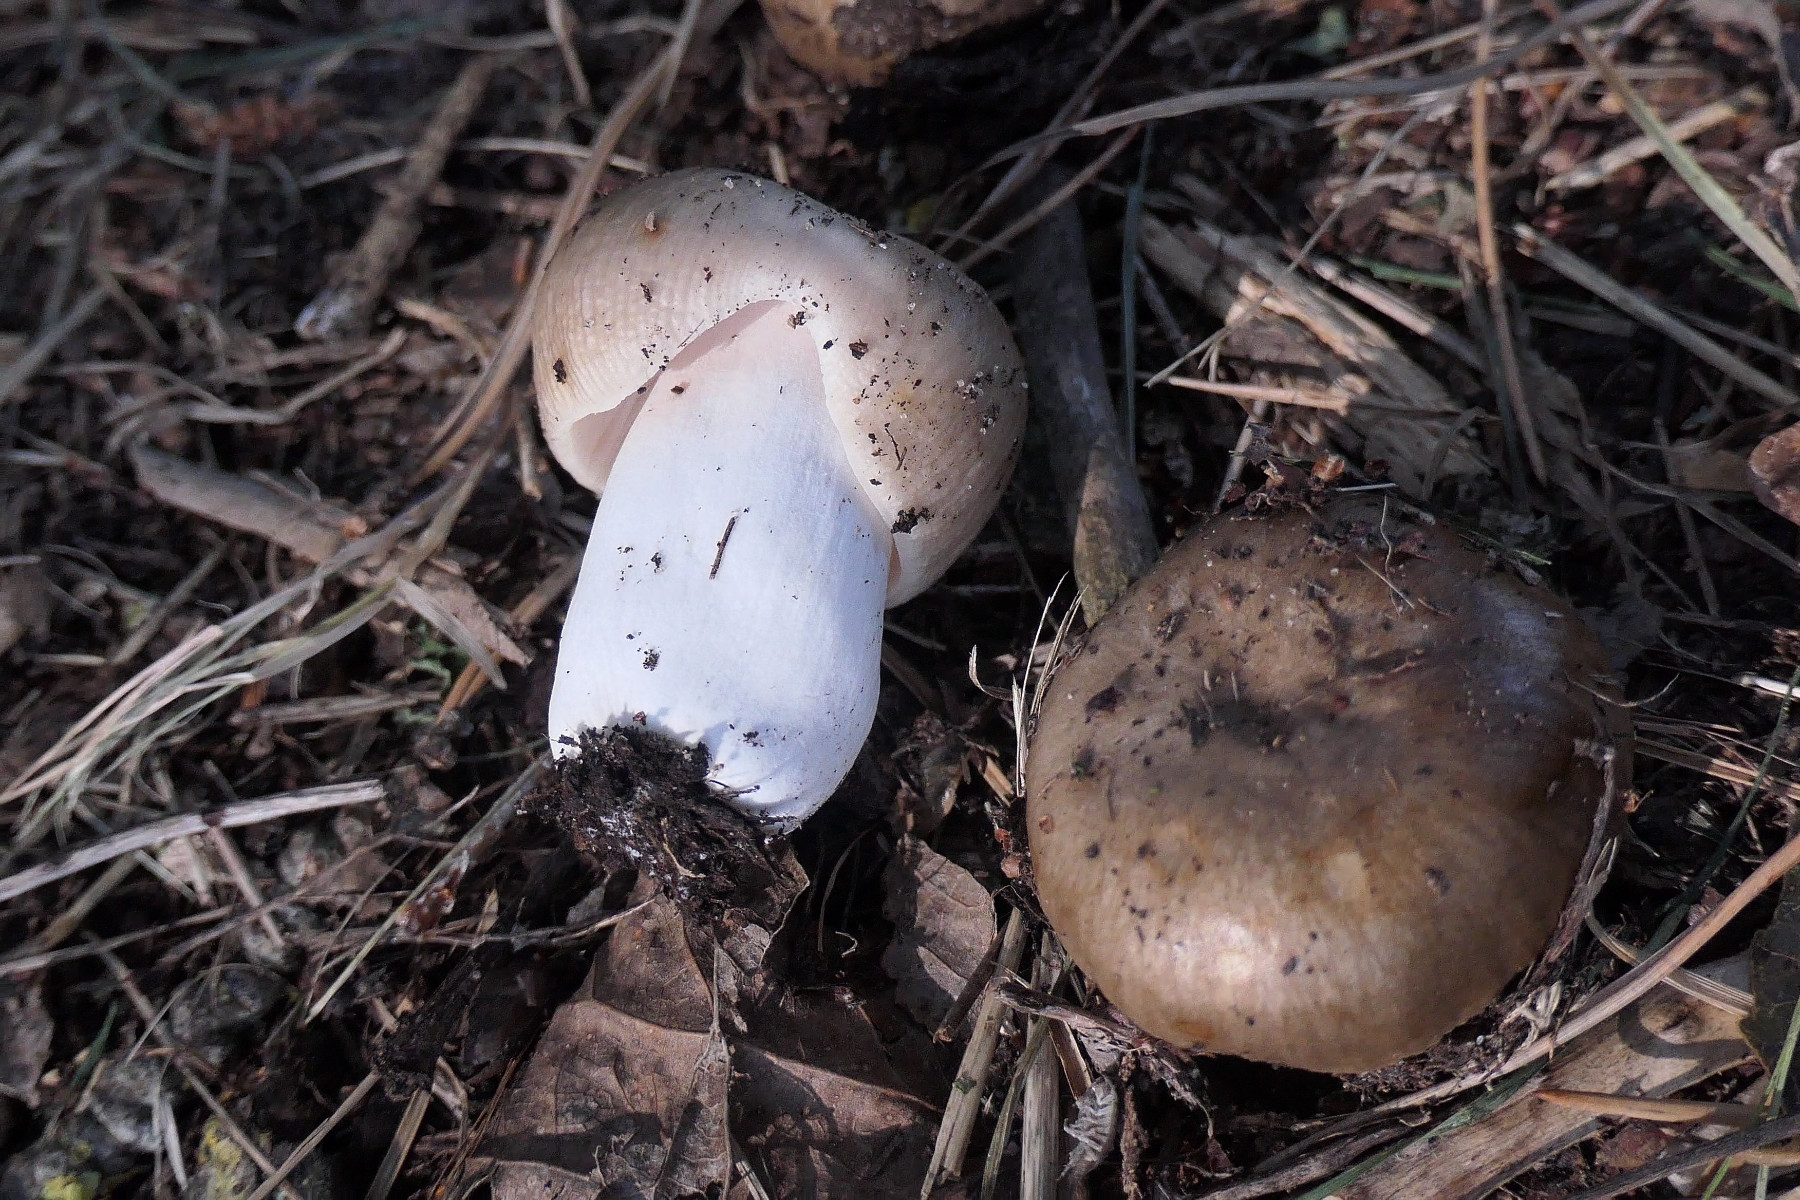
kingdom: Fungi
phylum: Basidiomycota
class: Agaricomycetes
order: Russulales
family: Russulaceae
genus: Russula
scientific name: Russula amoenolens
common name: skarp kam-skørhat
